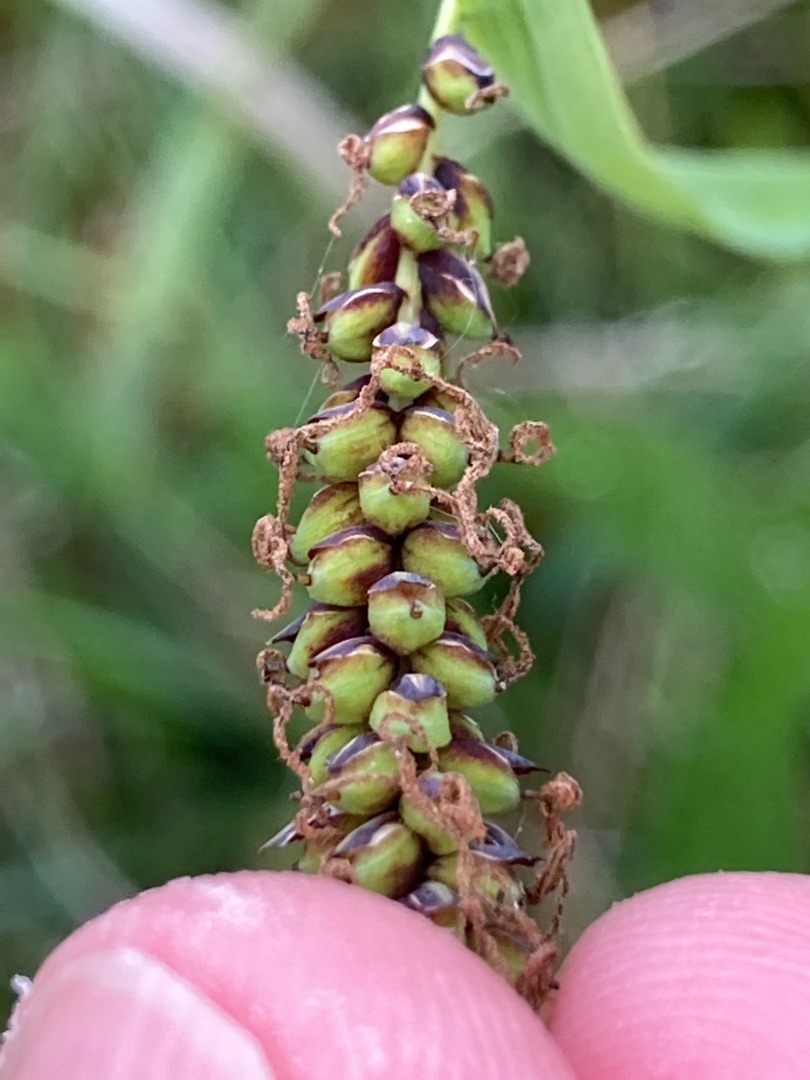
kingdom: Plantae
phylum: Tracheophyta
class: Liliopsida
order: Poales
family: Cyperaceae
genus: Carex
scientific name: Carex flacca
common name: Blågrøn star
